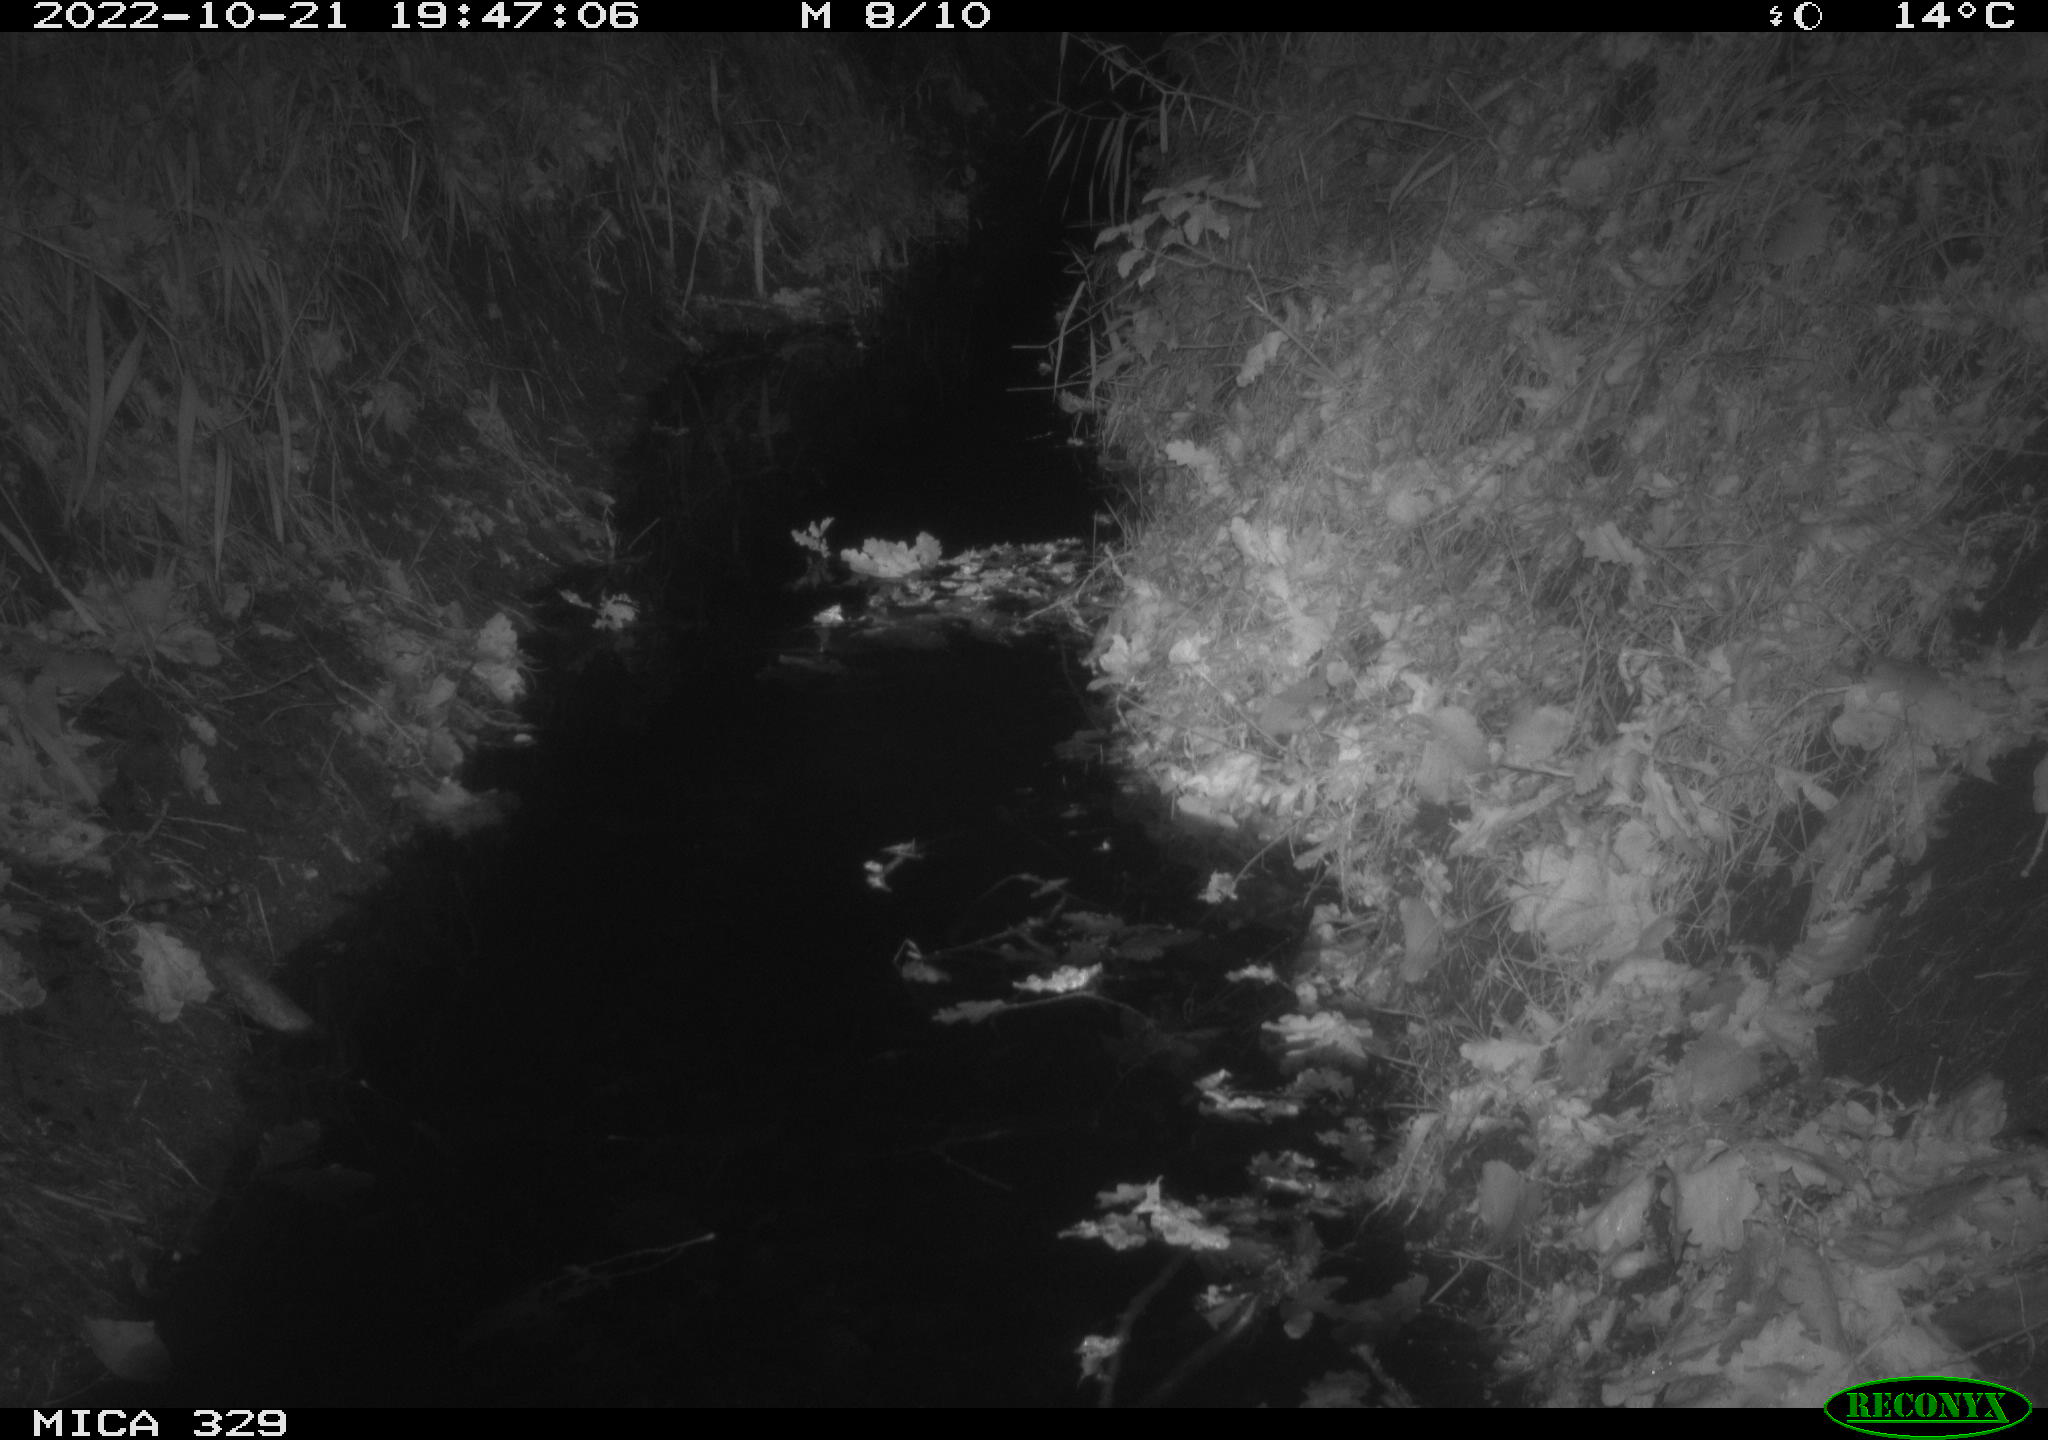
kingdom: Animalia
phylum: Chordata
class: Mammalia
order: Rodentia
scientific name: Rodentia
